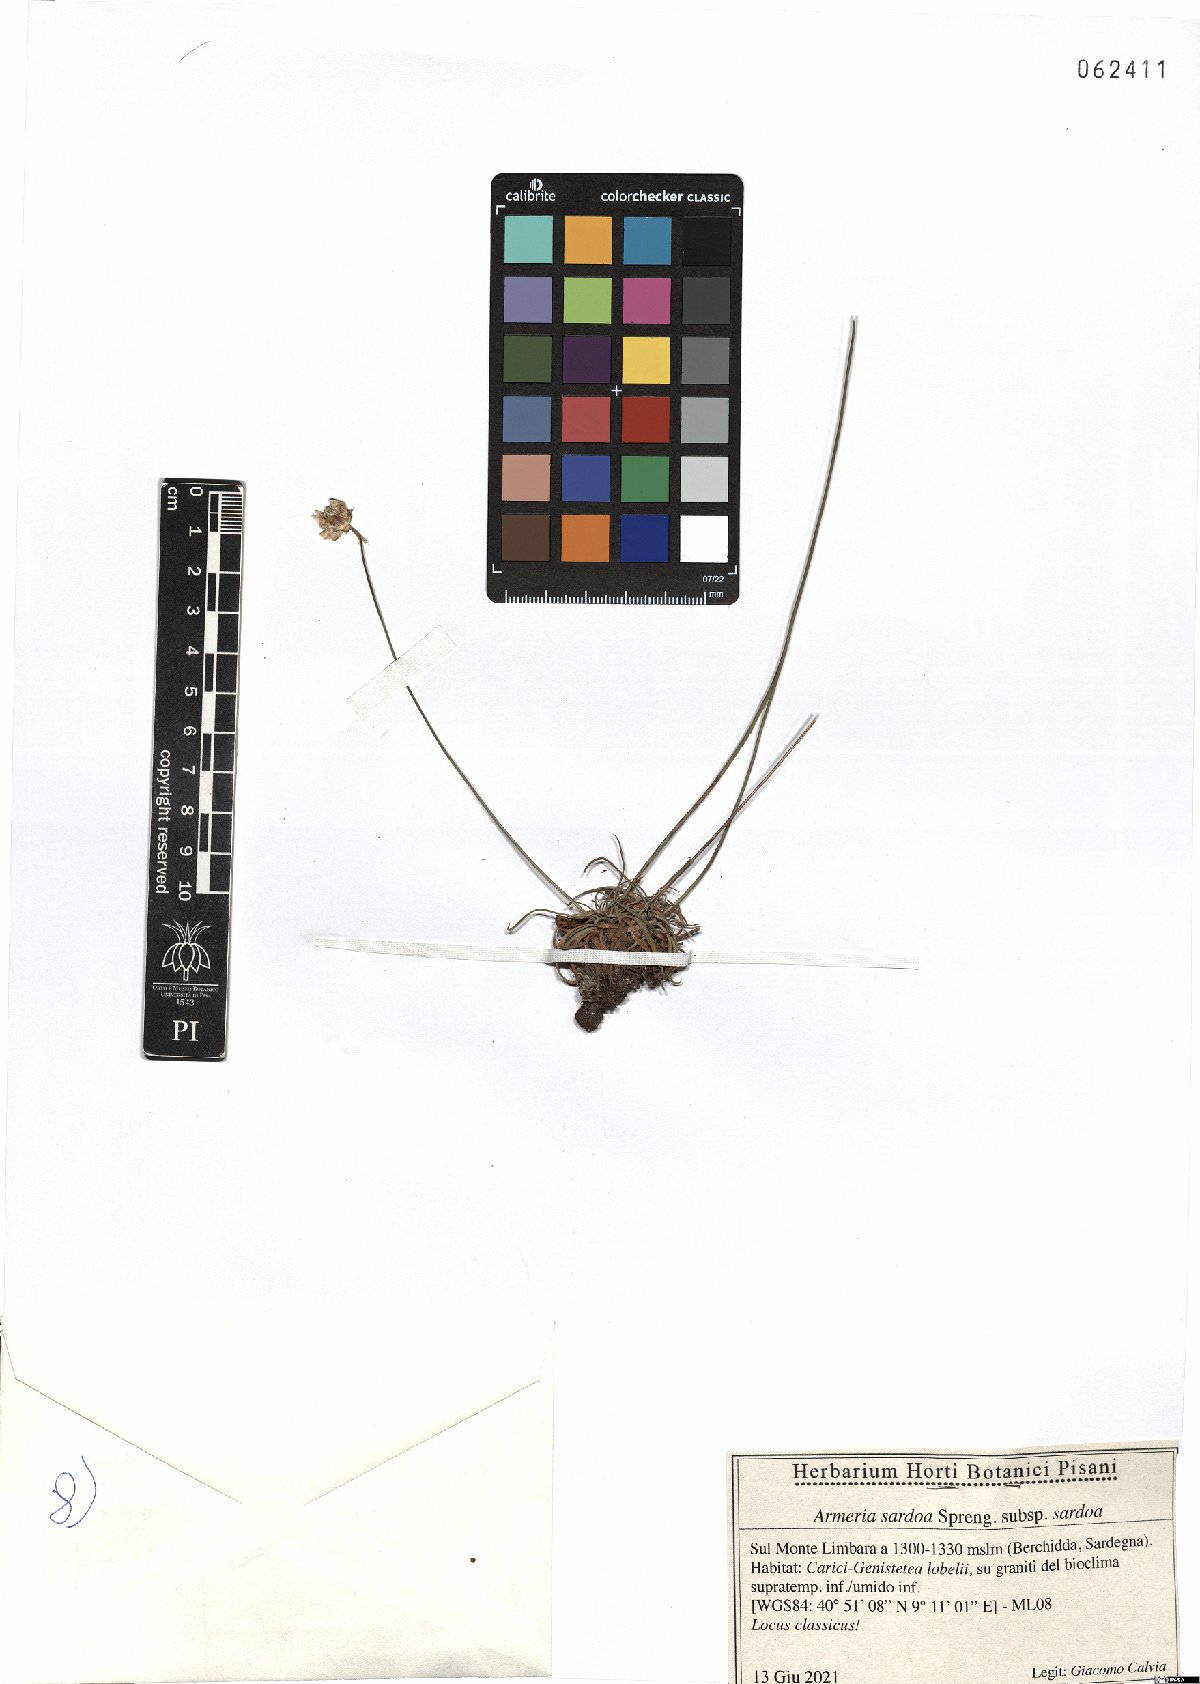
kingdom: Plantae
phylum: Tracheophyta
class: Magnoliopsida
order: Caryophyllales
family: Plumbaginaceae
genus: Armeria
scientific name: Armeria sardoa
